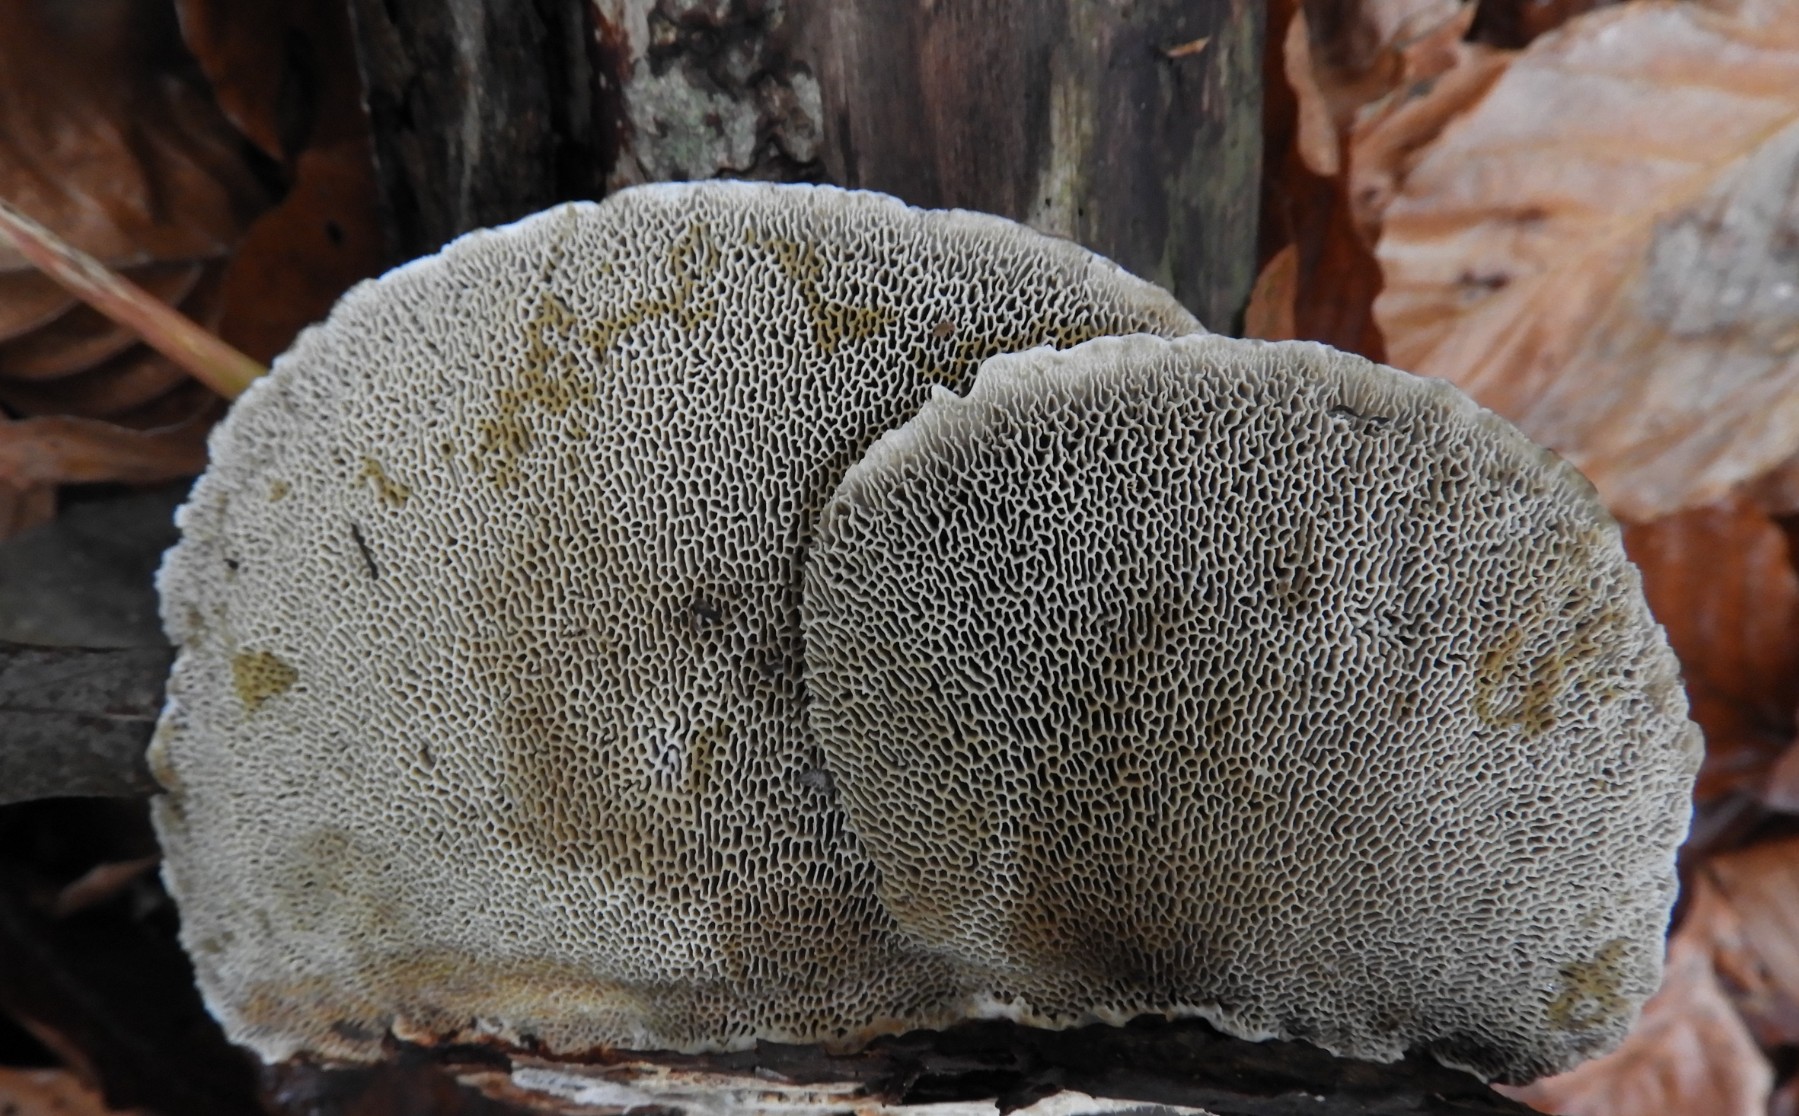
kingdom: Fungi
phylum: Basidiomycota
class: Agaricomycetes
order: Polyporales
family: Polyporaceae
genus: Daedaleopsis
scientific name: Daedaleopsis confragosa
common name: rødmende læderporesvamp
